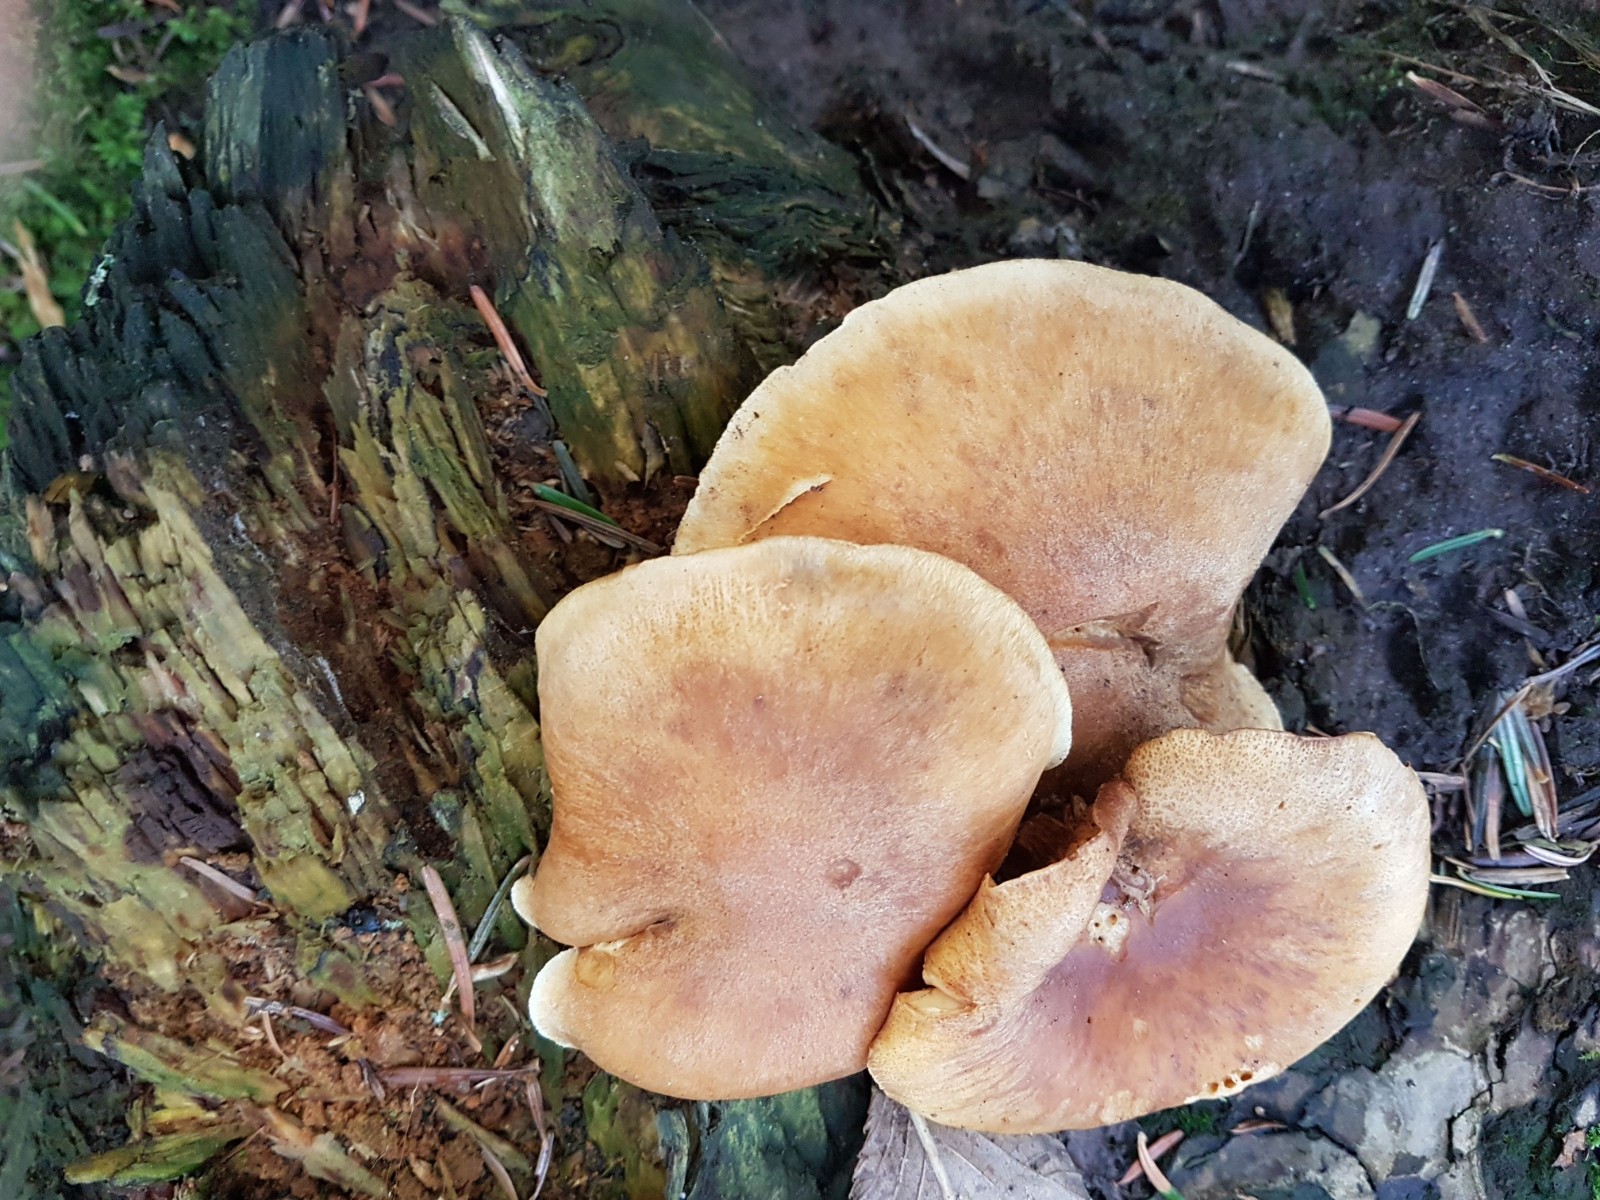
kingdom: Fungi
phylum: Basidiomycota
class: Agaricomycetes
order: Agaricales
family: Hymenogastraceae
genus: Gymnopilus
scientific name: Gymnopilus penetrans
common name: plettet flammehat
